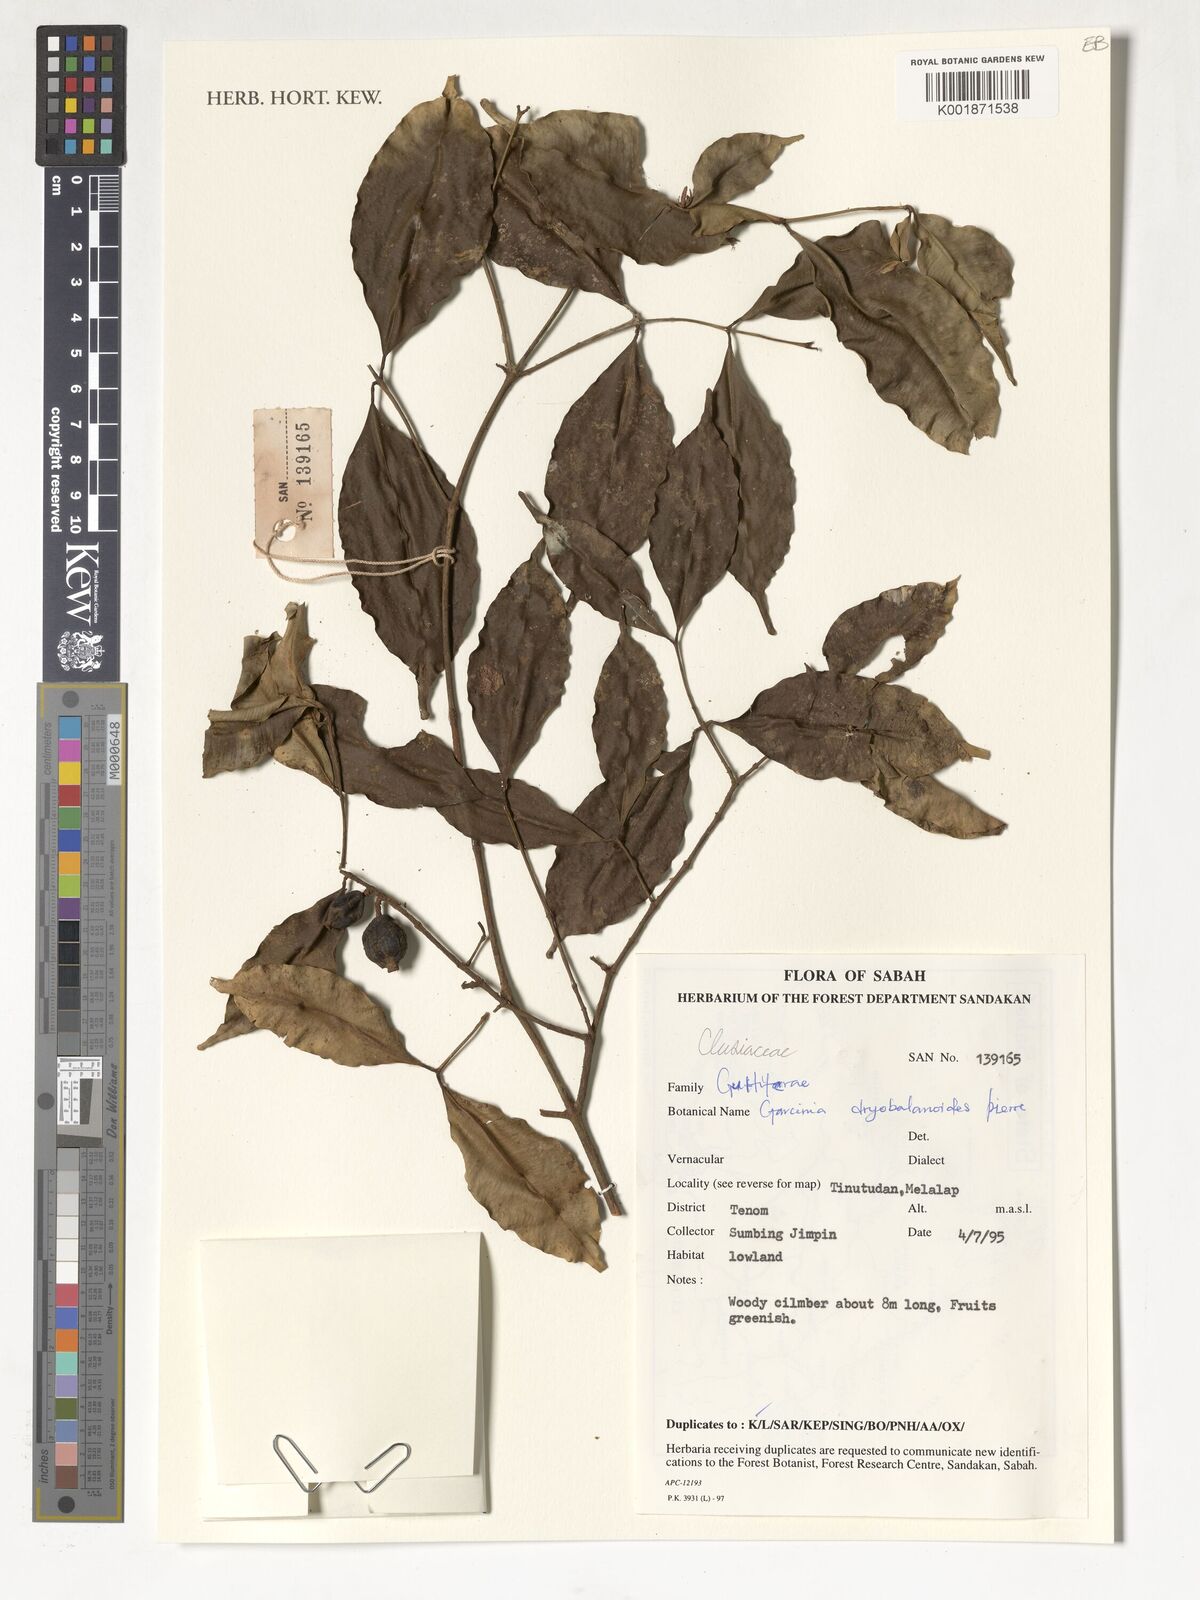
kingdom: Plantae
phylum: Tracheophyta
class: Magnoliopsida
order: Malpighiales
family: Clusiaceae
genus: Garcinia
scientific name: Garcinia dryobalanoides
